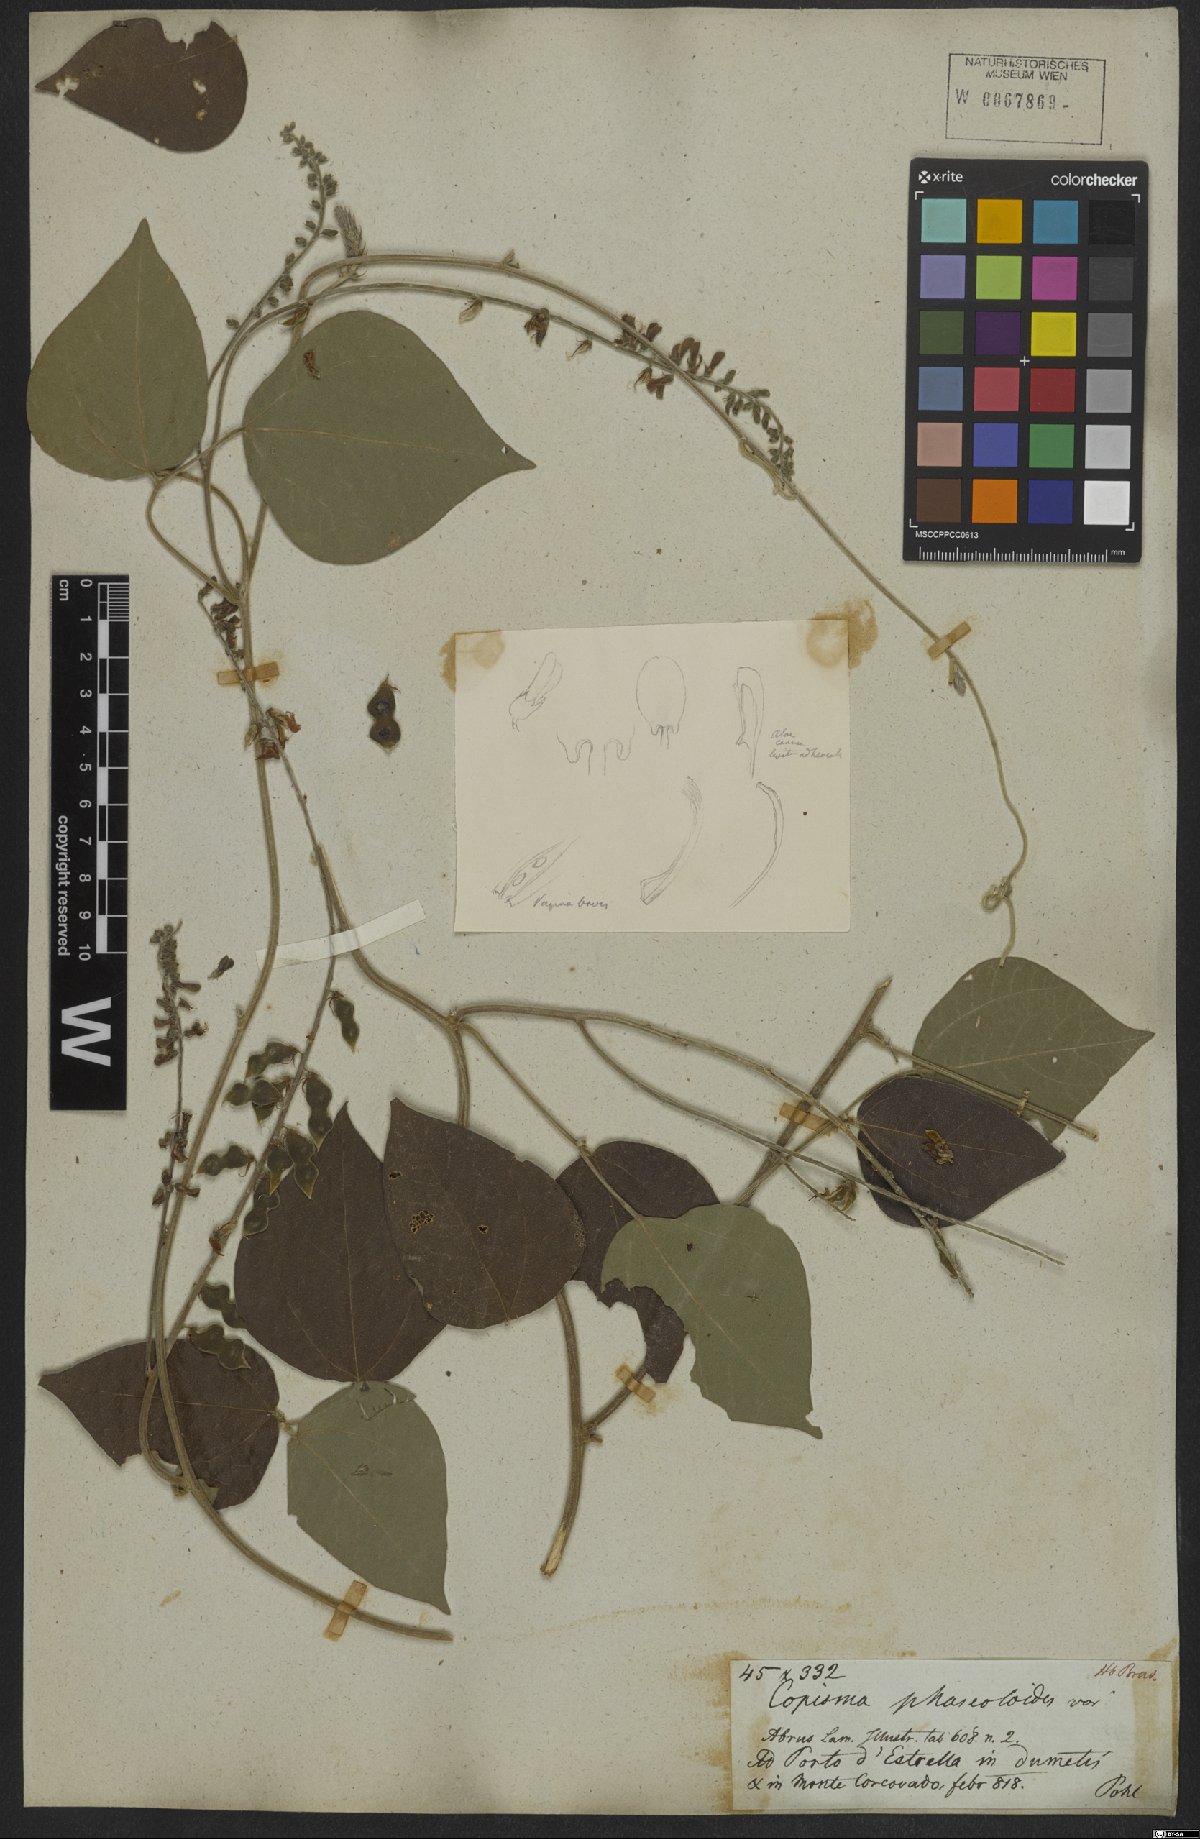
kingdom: Plantae
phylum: Tracheophyta
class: Magnoliopsida
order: Fabales
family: Fabaceae
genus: Rhynchosia
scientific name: Rhynchosia phaseoloides
